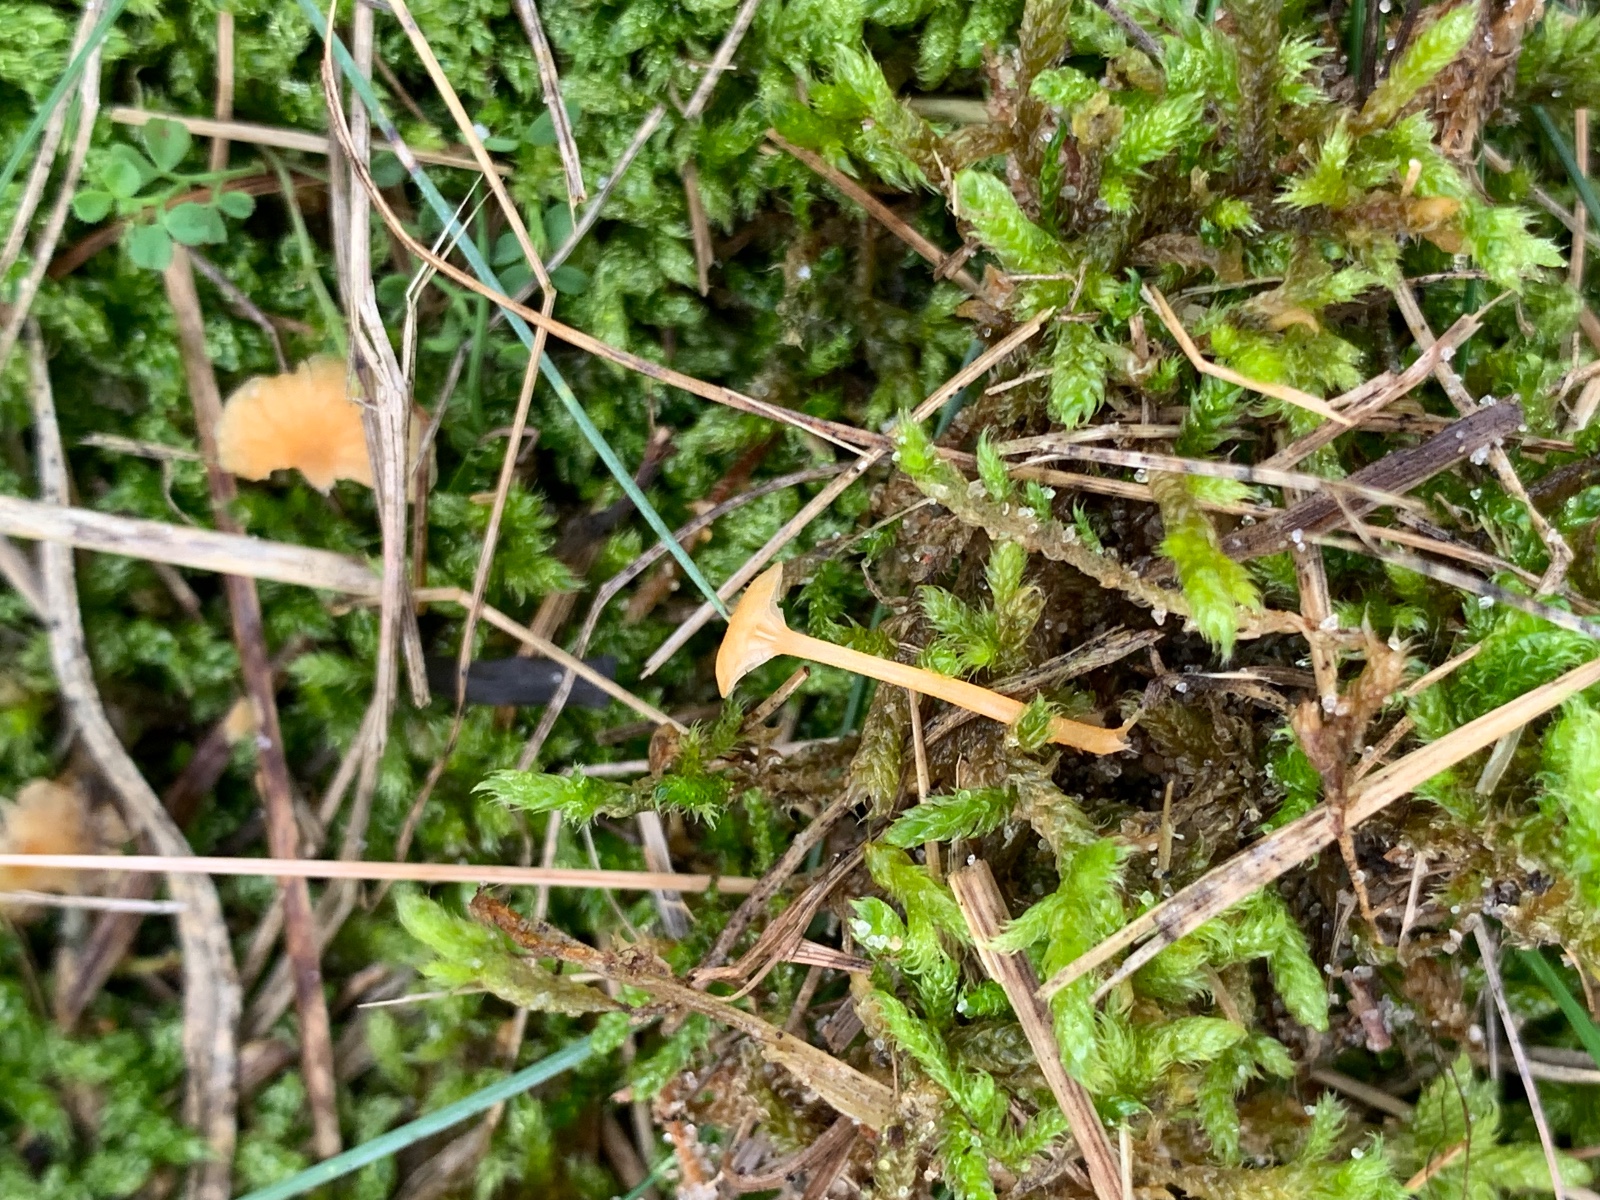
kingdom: Fungi
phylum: Basidiomycota
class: Agaricomycetes
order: Hymenochaetales
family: Rickenellaceae
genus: Rickenella
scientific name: Rickenella fibula
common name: orange mosnavlehat
